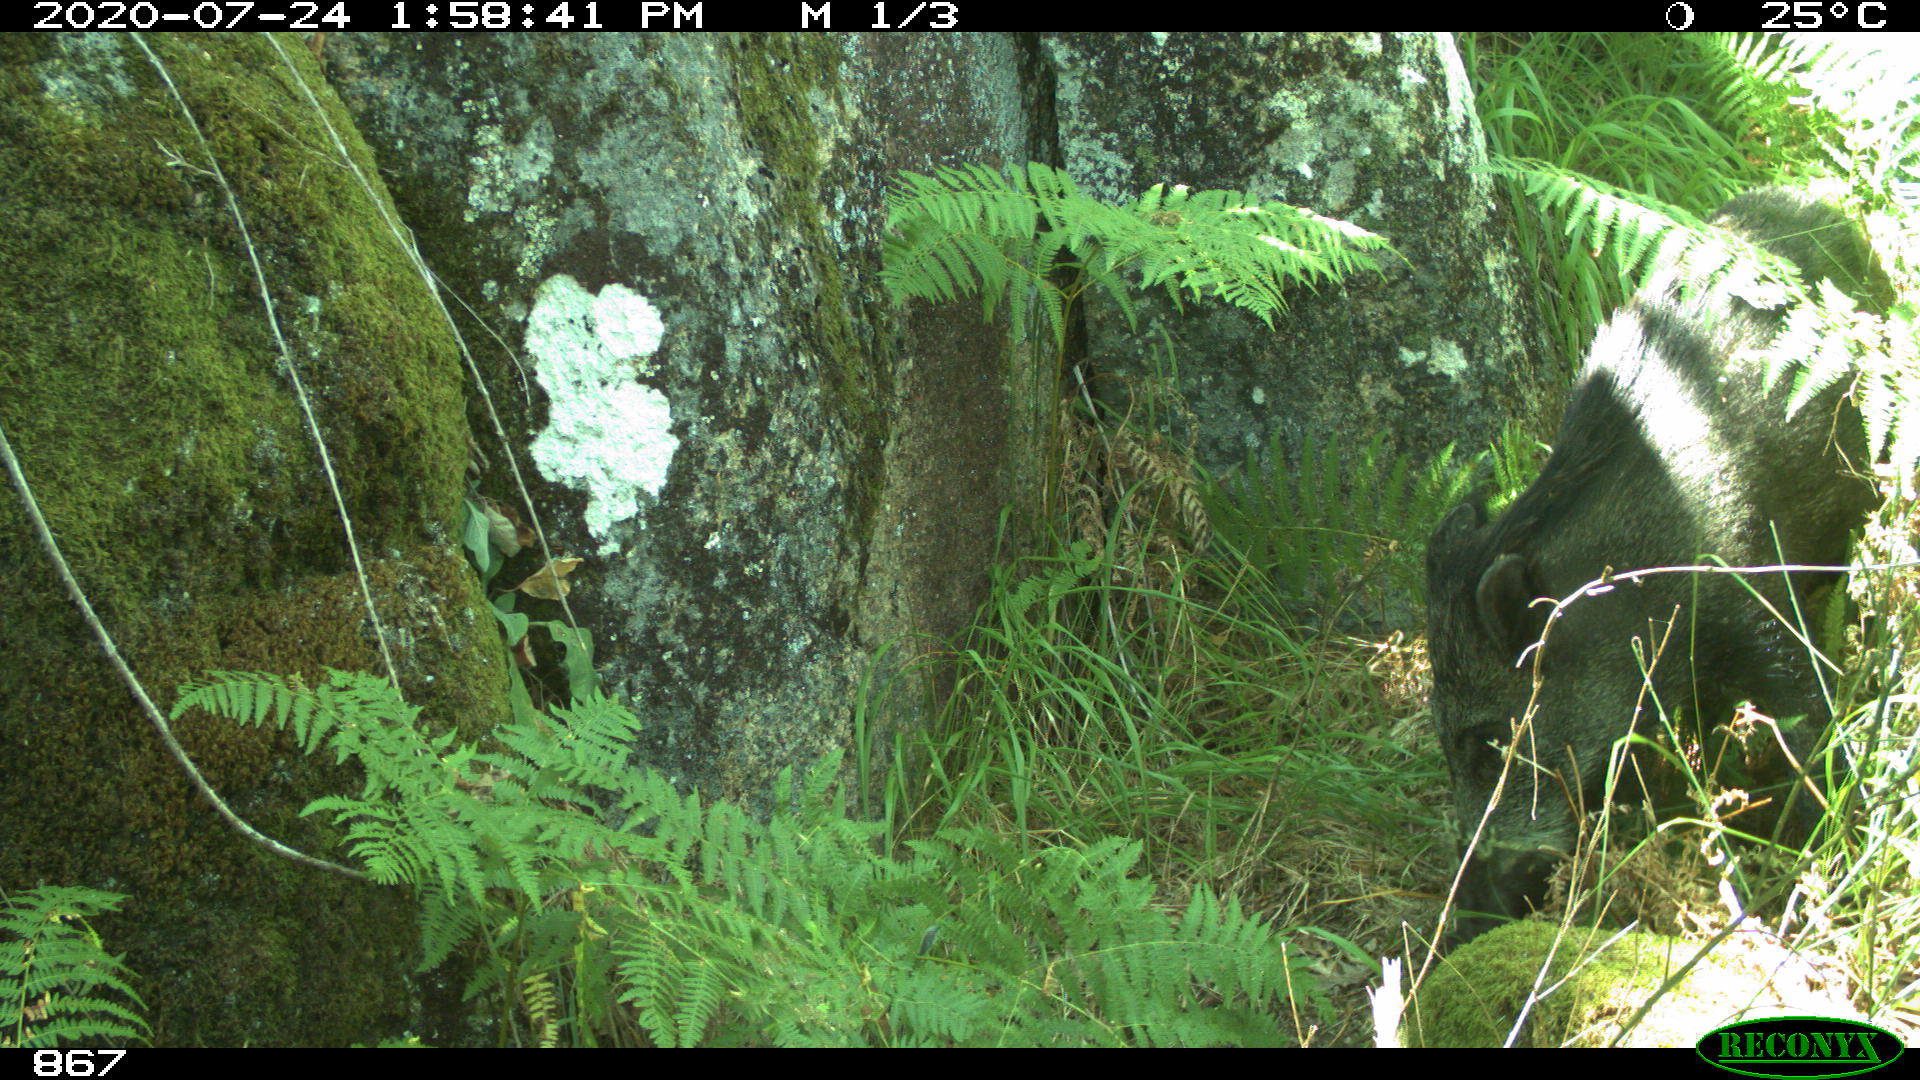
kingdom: Animalia
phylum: Chordata
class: Mammalia
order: Artiodactyla
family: Suidae
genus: Sus
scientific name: Sus scrofa
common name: Wild boar
